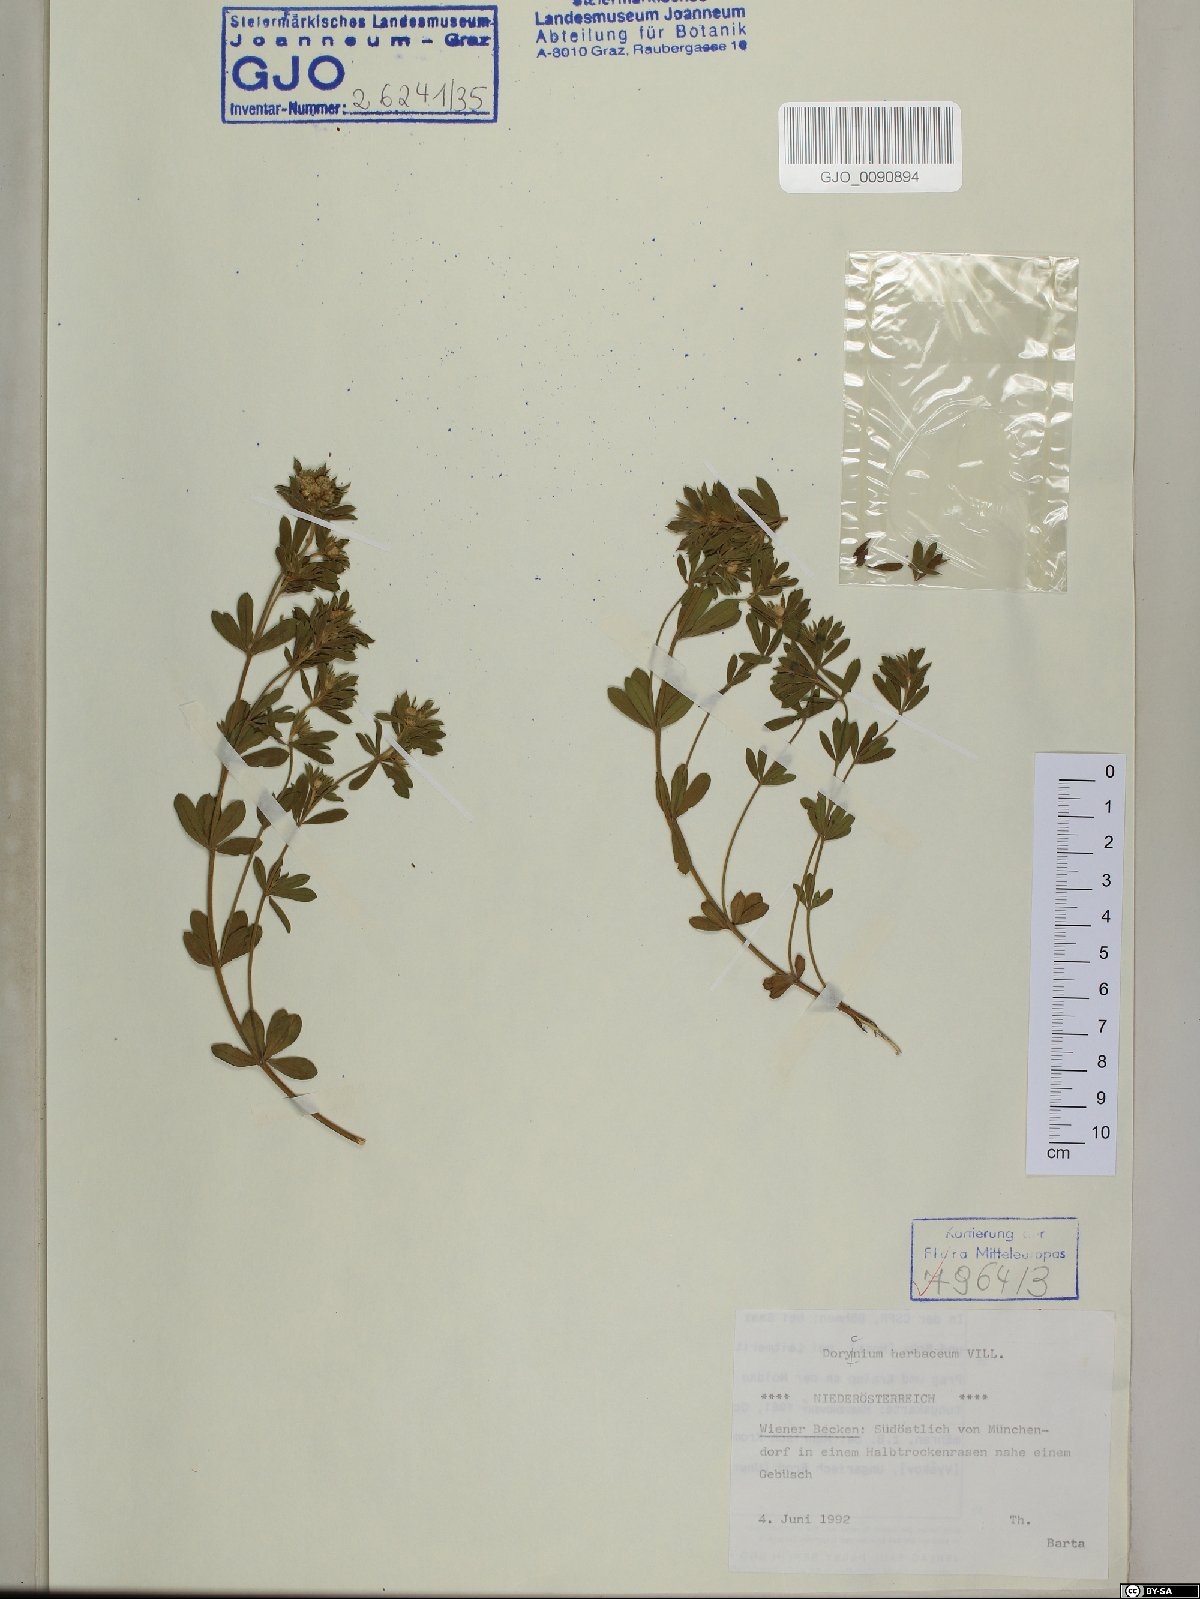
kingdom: Plantae
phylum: Tracheophyta
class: Magnoliopsida
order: Fabales
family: Fabaceae
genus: Lotus
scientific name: Lotus herbaceus
